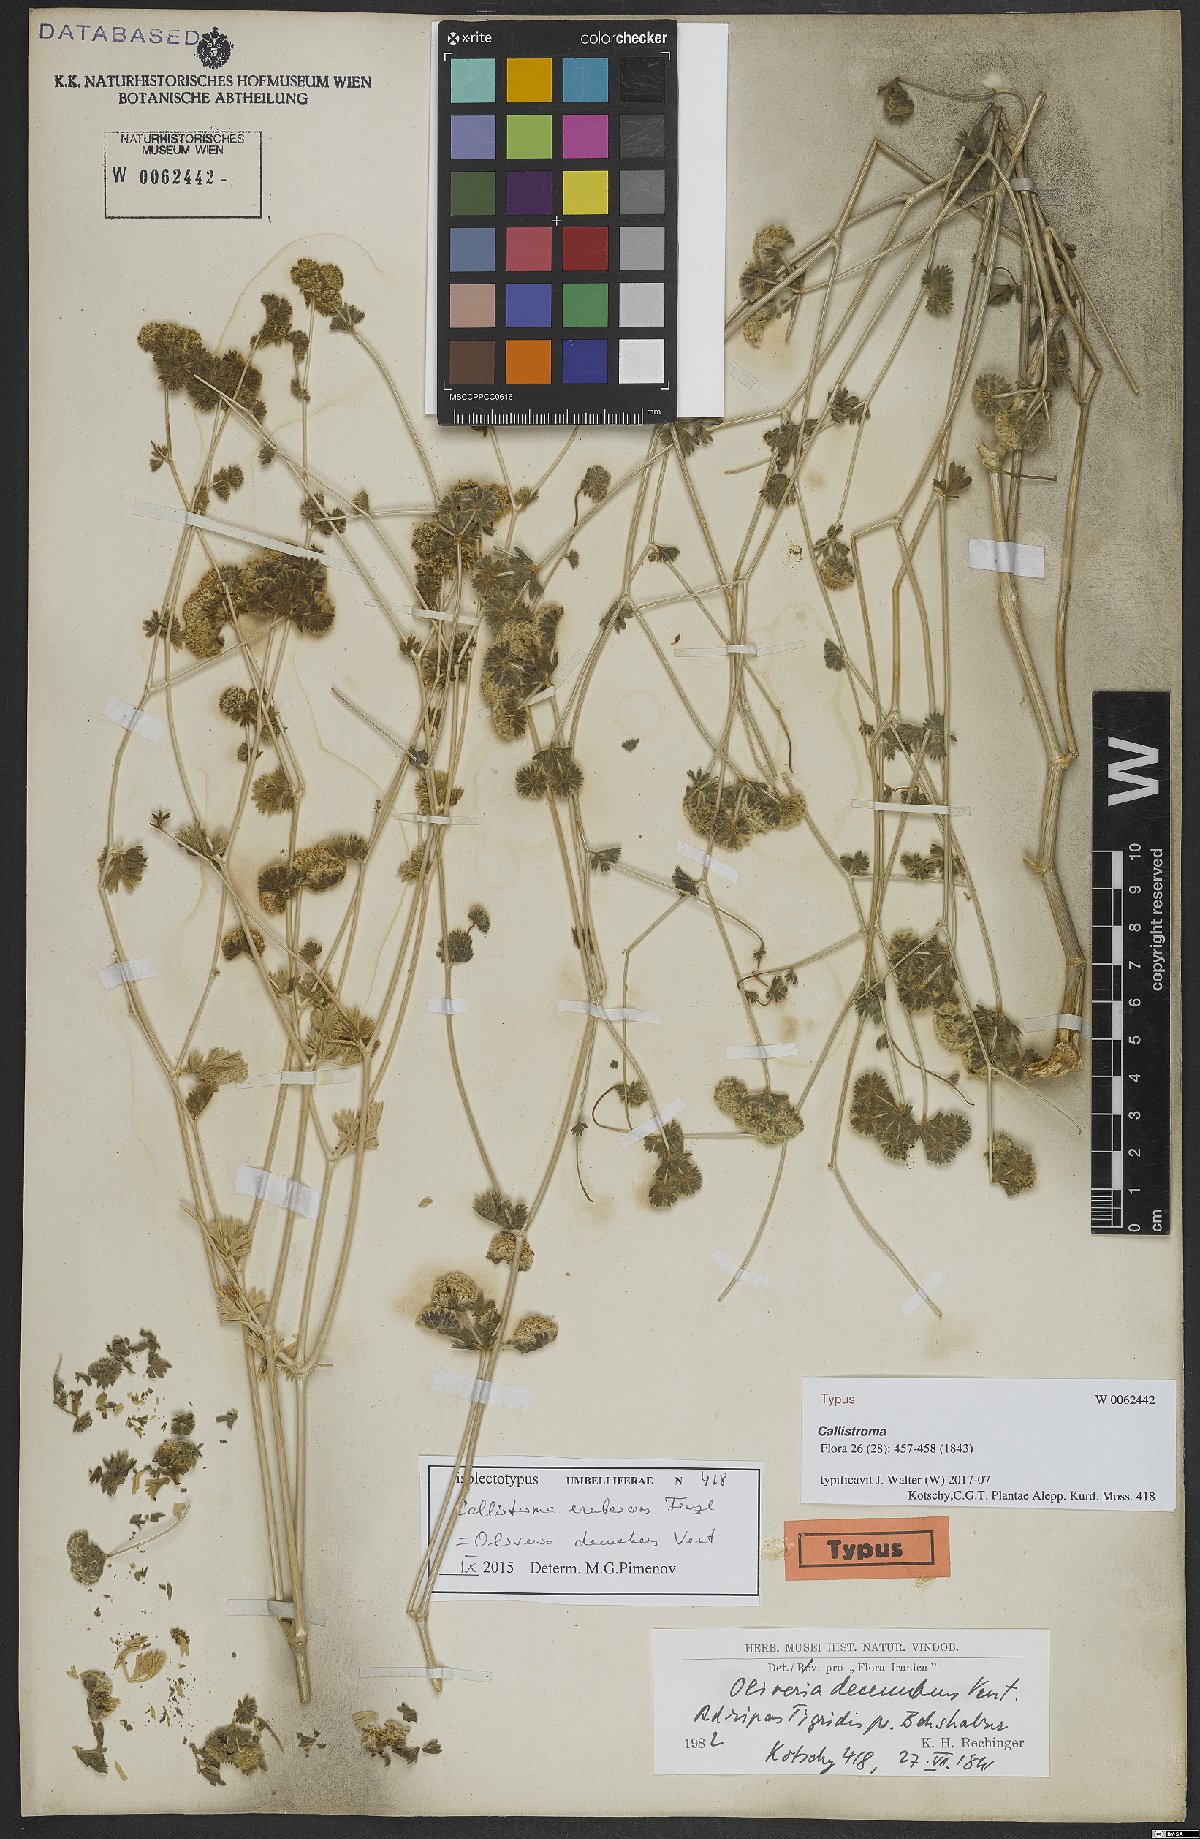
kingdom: Plantae
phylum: Tracheophyta
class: Magnoliopsida
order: Apiales
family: Apiaceae
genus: Oliveria
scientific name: Oliveria decumbens
